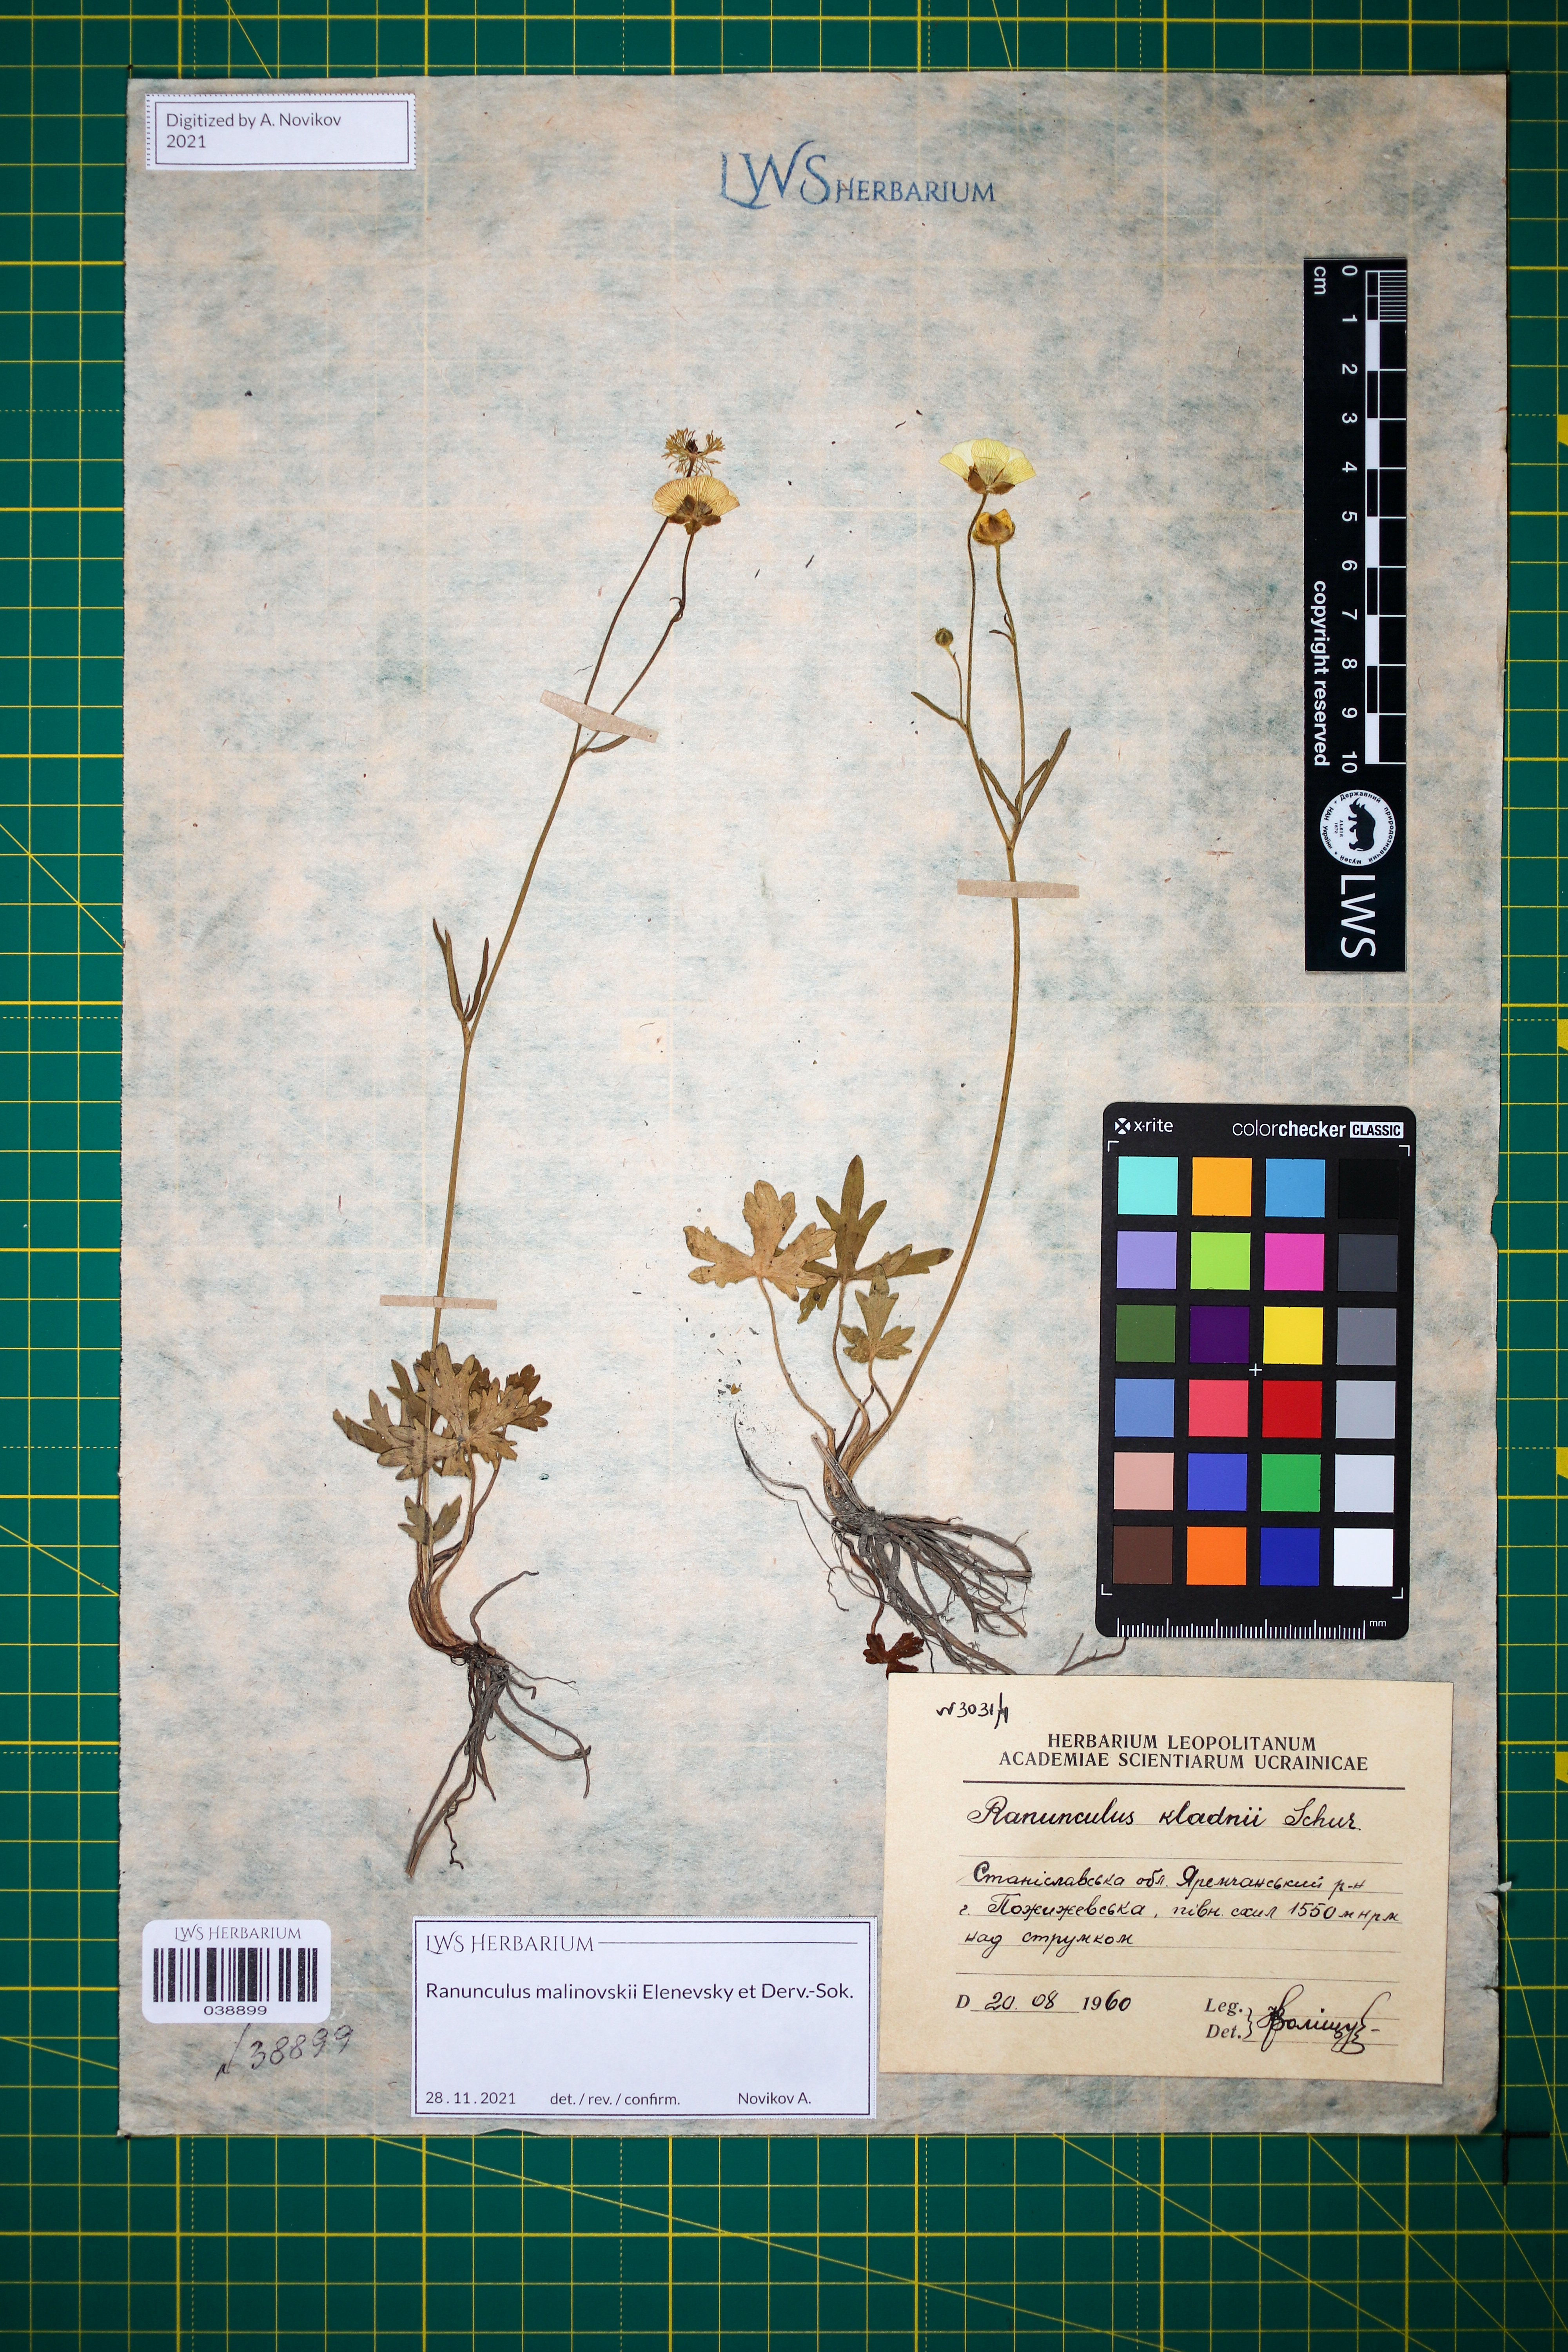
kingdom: Plantae
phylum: Tracheophyta
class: Magnoliopsida
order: Ranunculales
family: Ranunculaceae
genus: Ranunculus
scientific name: Ranunculus malinovskii
